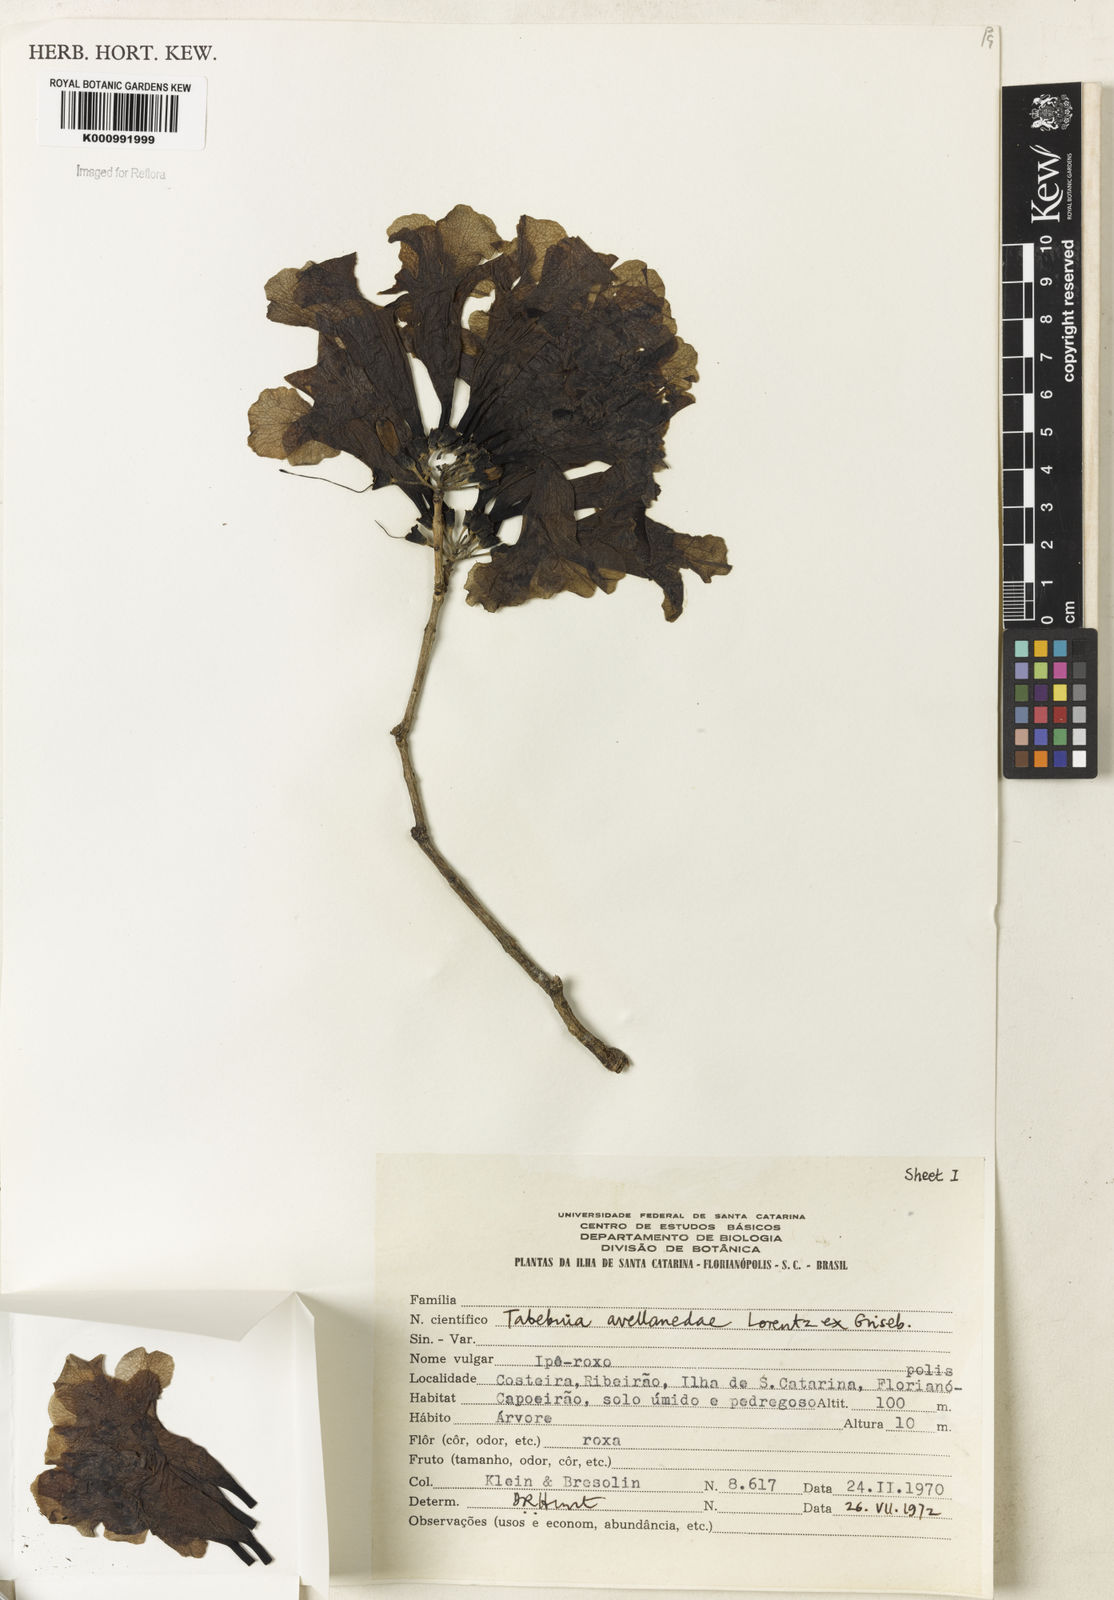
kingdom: Plantae
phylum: Tracheophyta
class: Magnoliopsida
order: Lamiales
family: Bignoniaceae
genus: Handroanthus
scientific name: Handroanthus heptaphyllus
